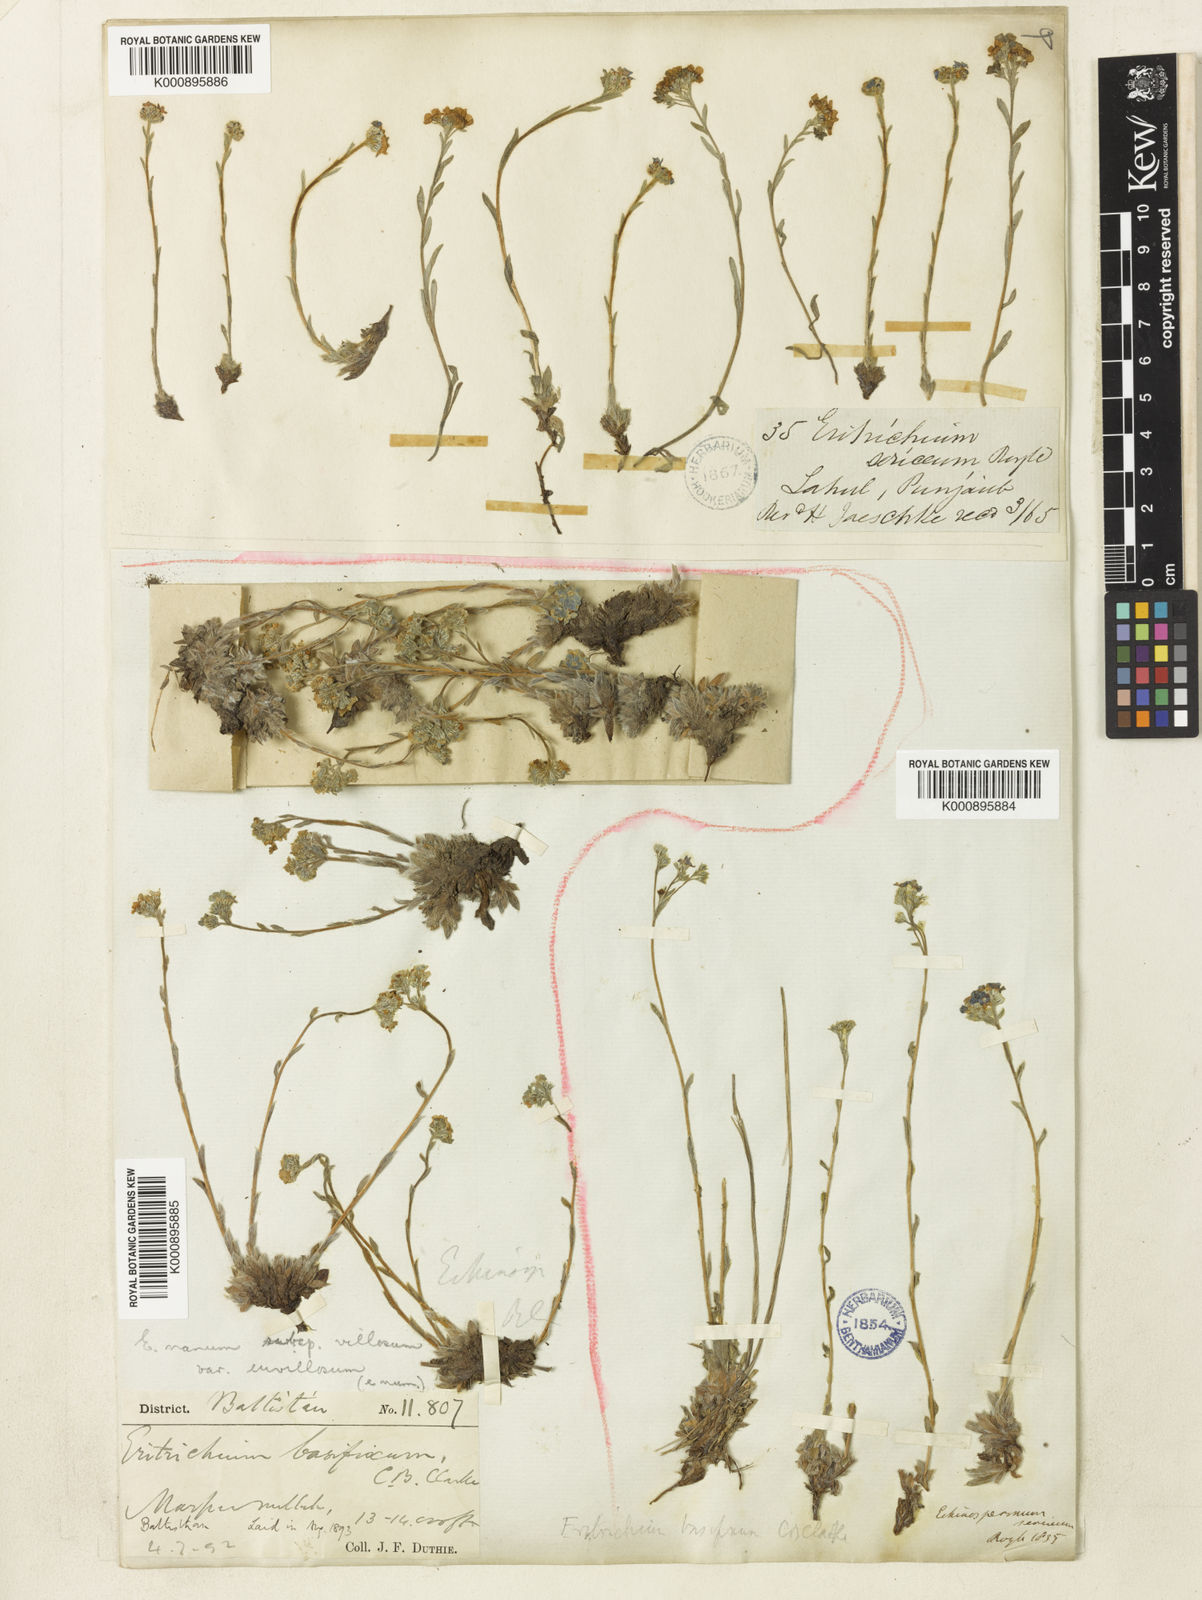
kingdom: Plantae
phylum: Tracheophyta
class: Magnoliopsida
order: Boraginales
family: Boraginaceae
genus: Eritrichium
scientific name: Eritrichium nanum
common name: King-of-the-alps
